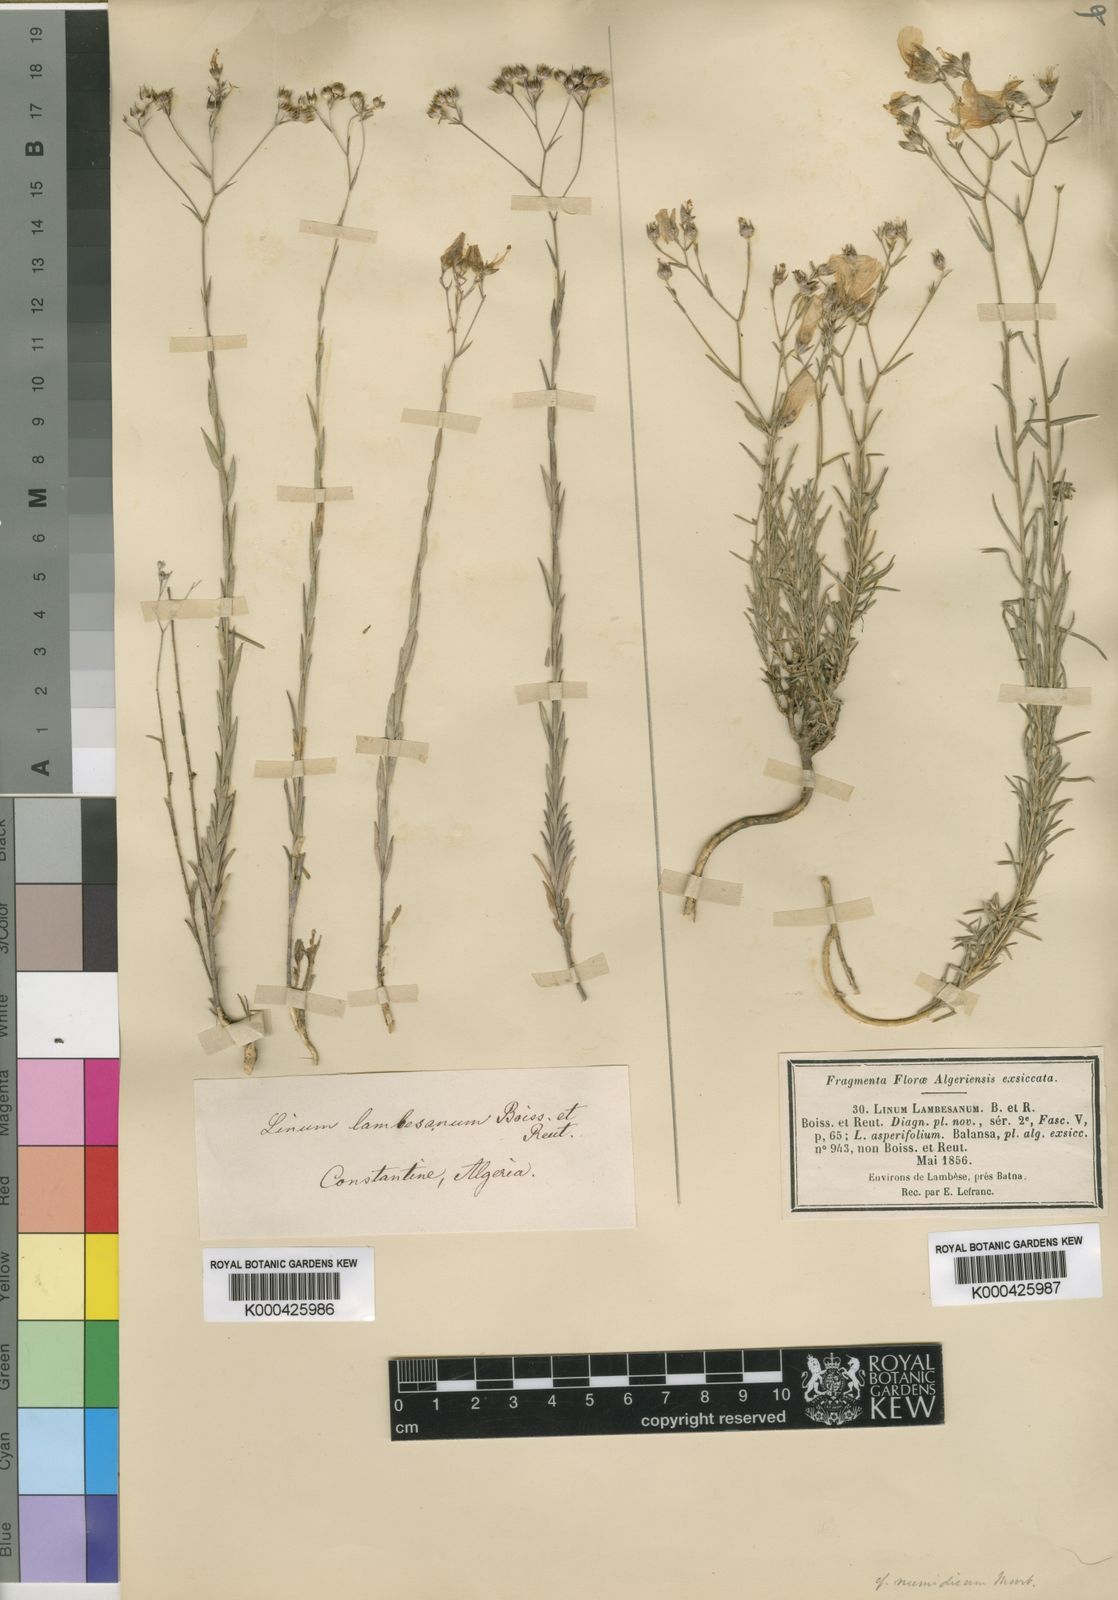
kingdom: Plantae
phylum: Tracheophyta
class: Magnoliopsida
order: Malpighiales
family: Linaceae
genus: Linum
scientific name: Linum corymbiferum
